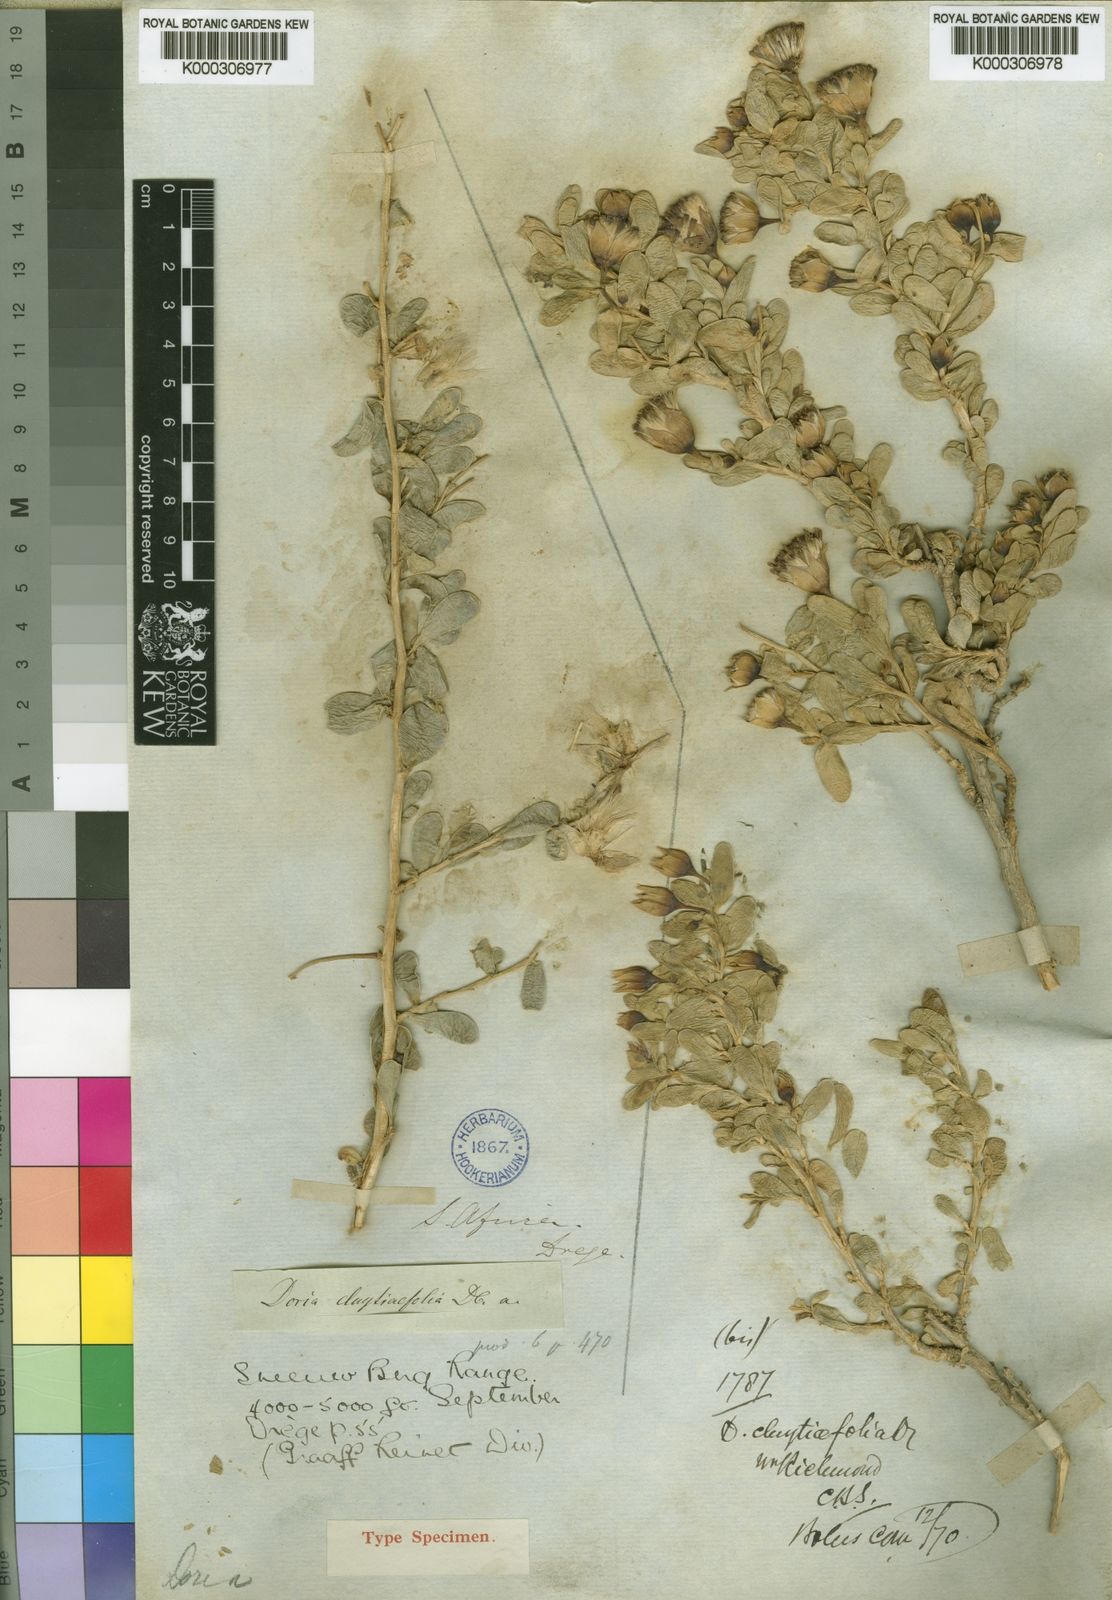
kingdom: Plantae
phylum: Tracheophyta
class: Magnoliopsida
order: Asterales
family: Asteraceae
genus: Othonna
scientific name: Othonna
